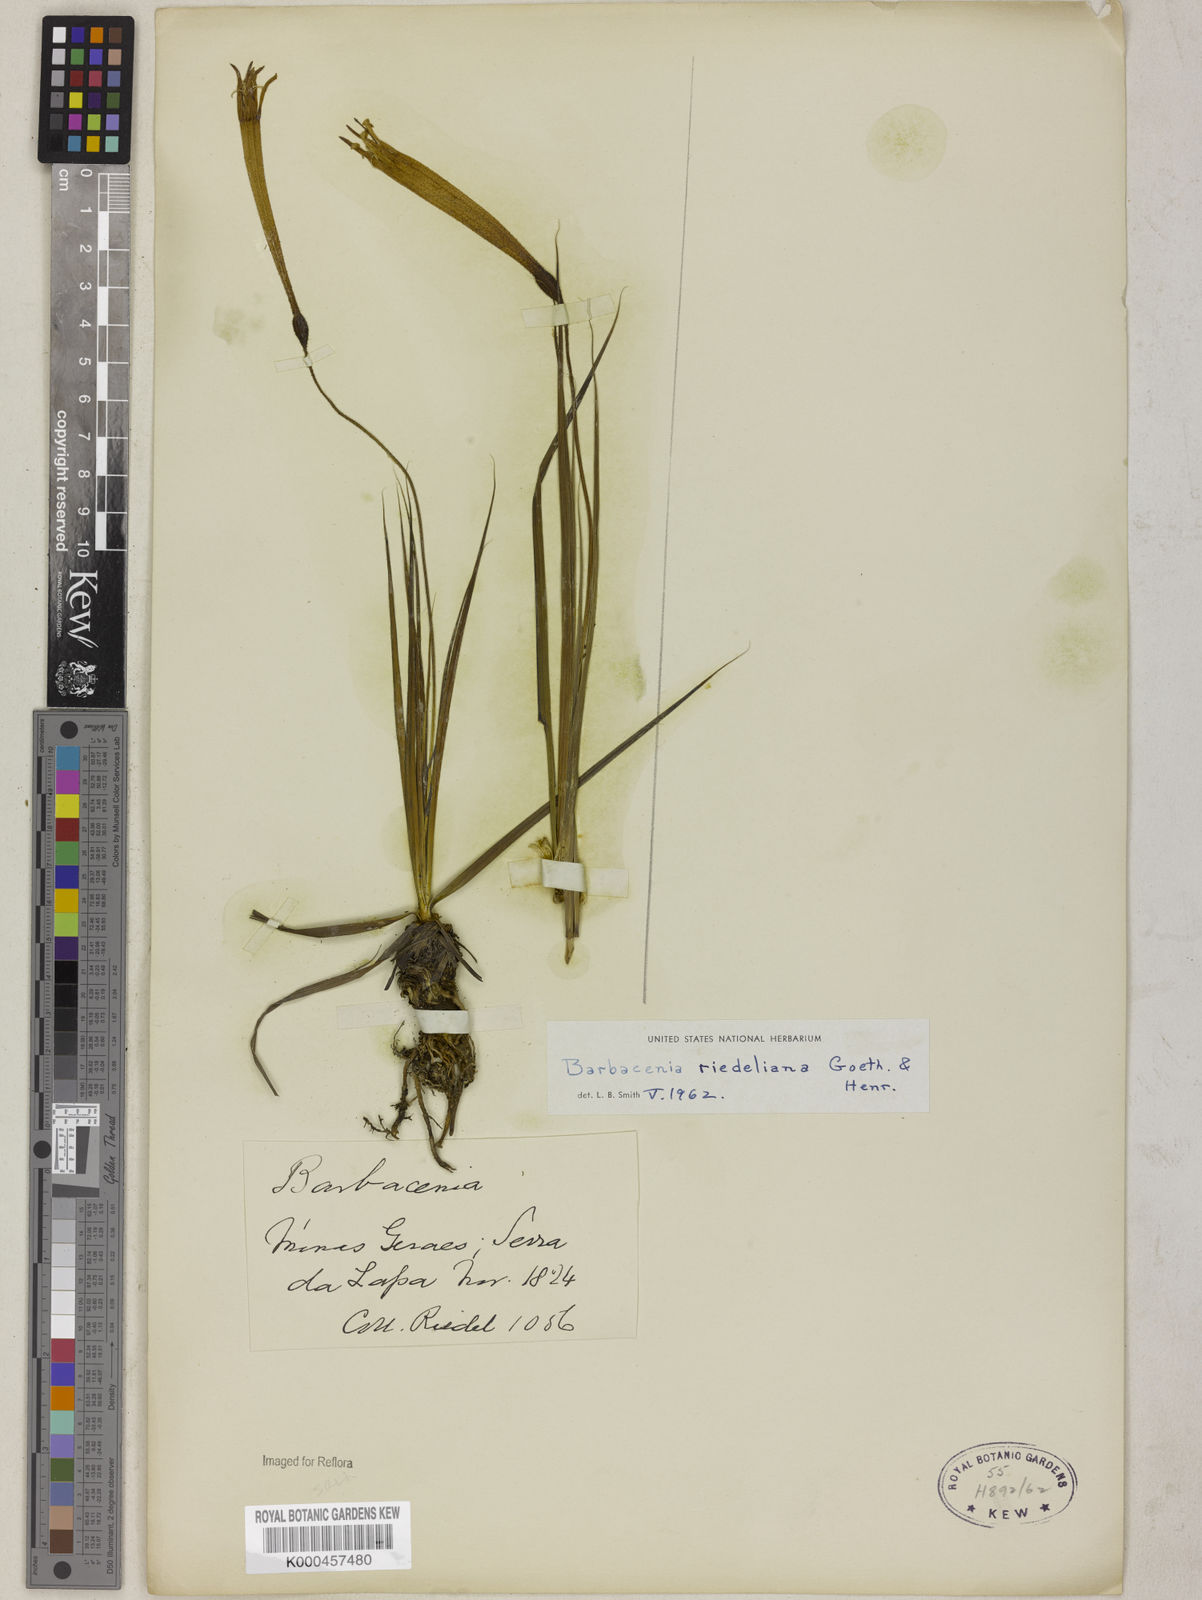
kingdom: Plantae
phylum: Tracheophyta
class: Liliopsida
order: Pandanales
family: Velloziaceae
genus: Barbacenia
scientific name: Barbacenia riedeliana
